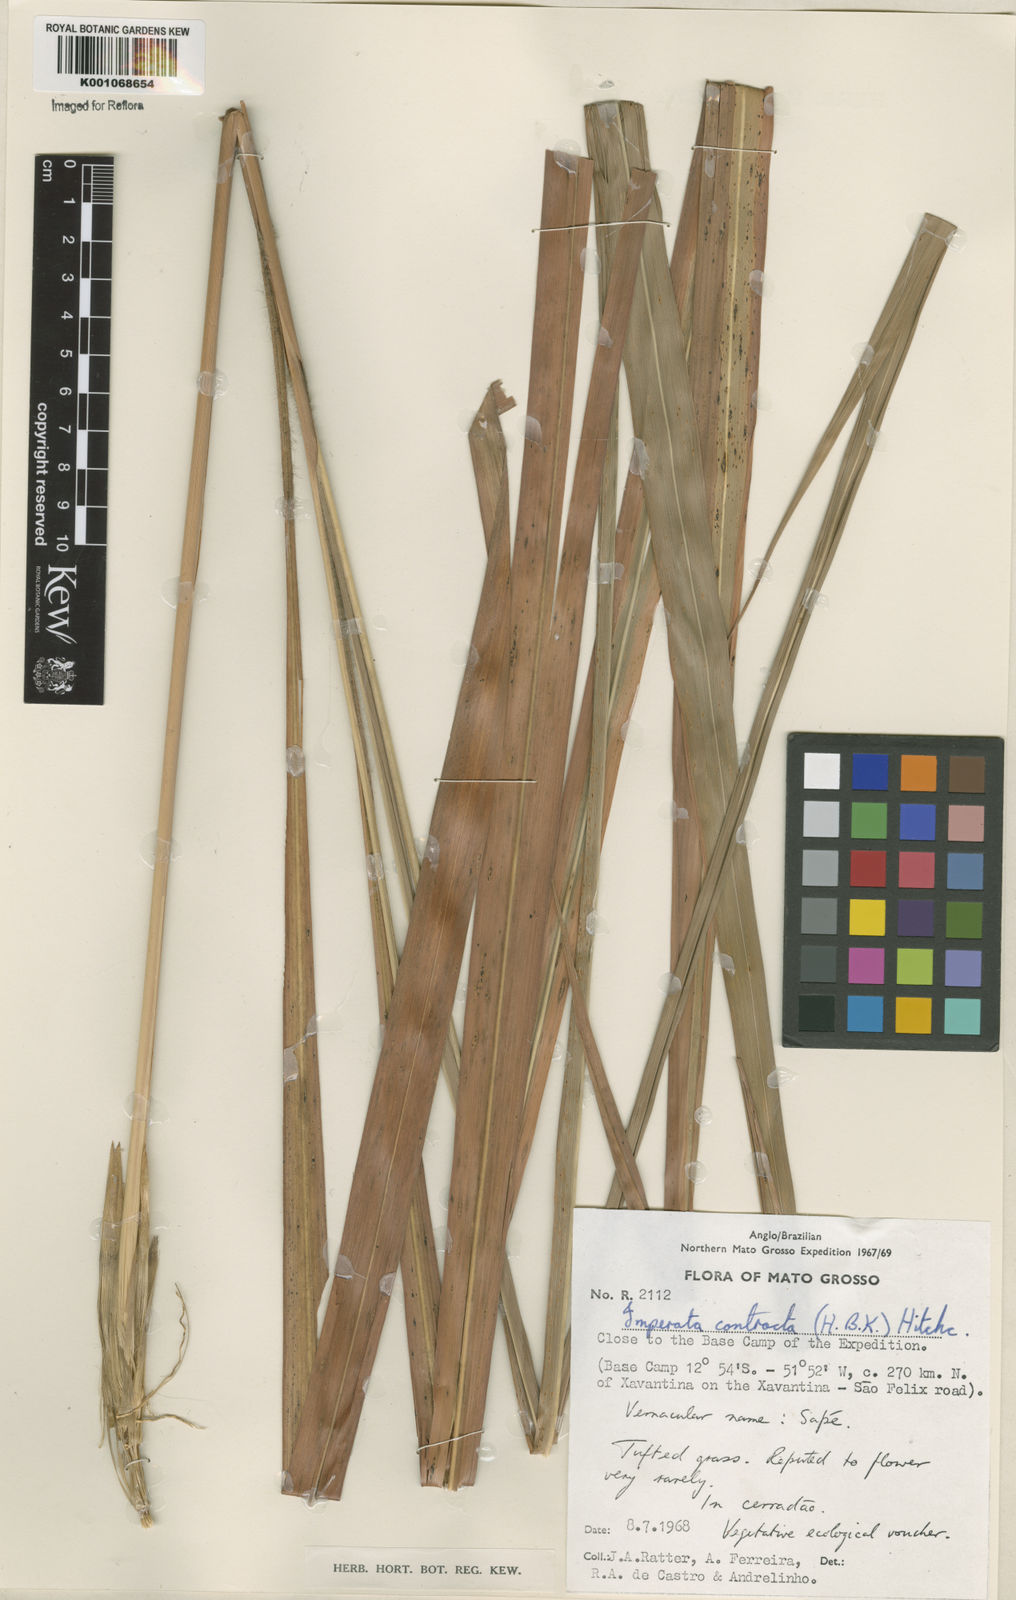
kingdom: Plantae
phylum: Tracheophyta
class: Liliopsida
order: Poales
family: Poaceae
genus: Imperata
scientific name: Imperata contracta
